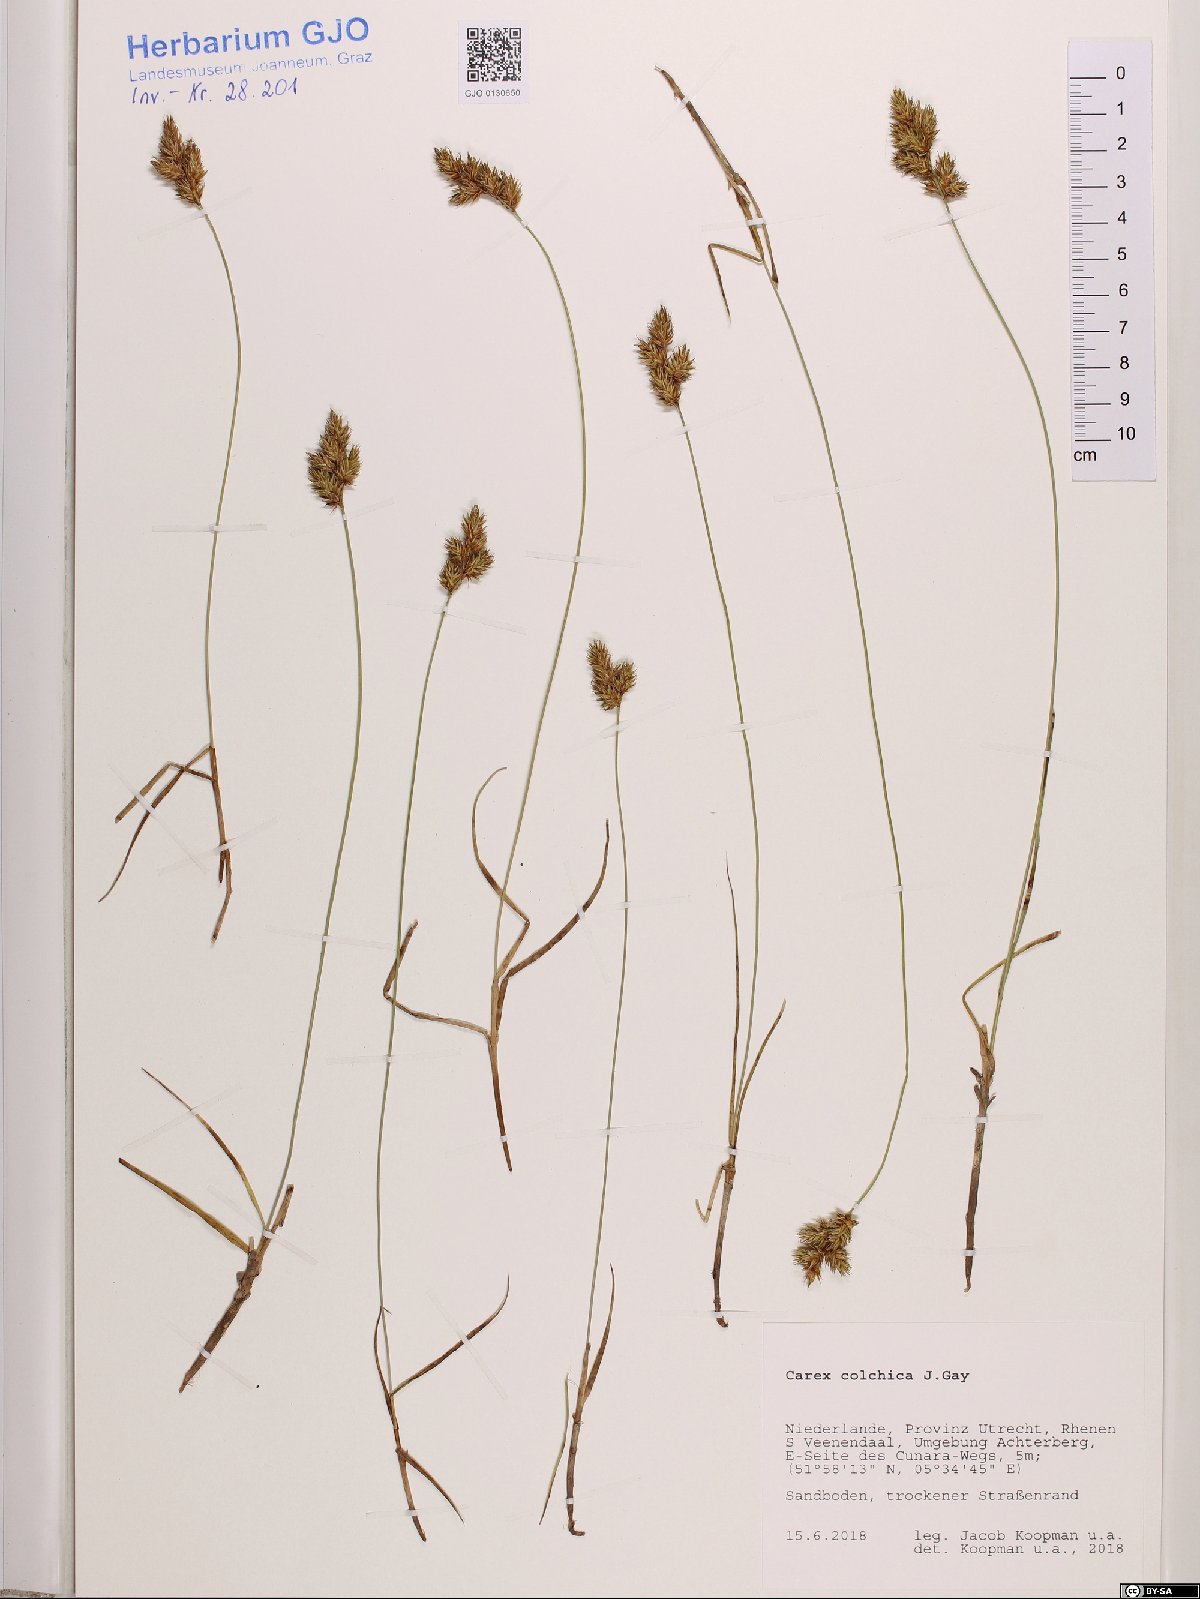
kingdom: Plantae
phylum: Tracheophyta
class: Liliopsida
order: Poales
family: Cyperaceae
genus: Carex
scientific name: Carex colchica
